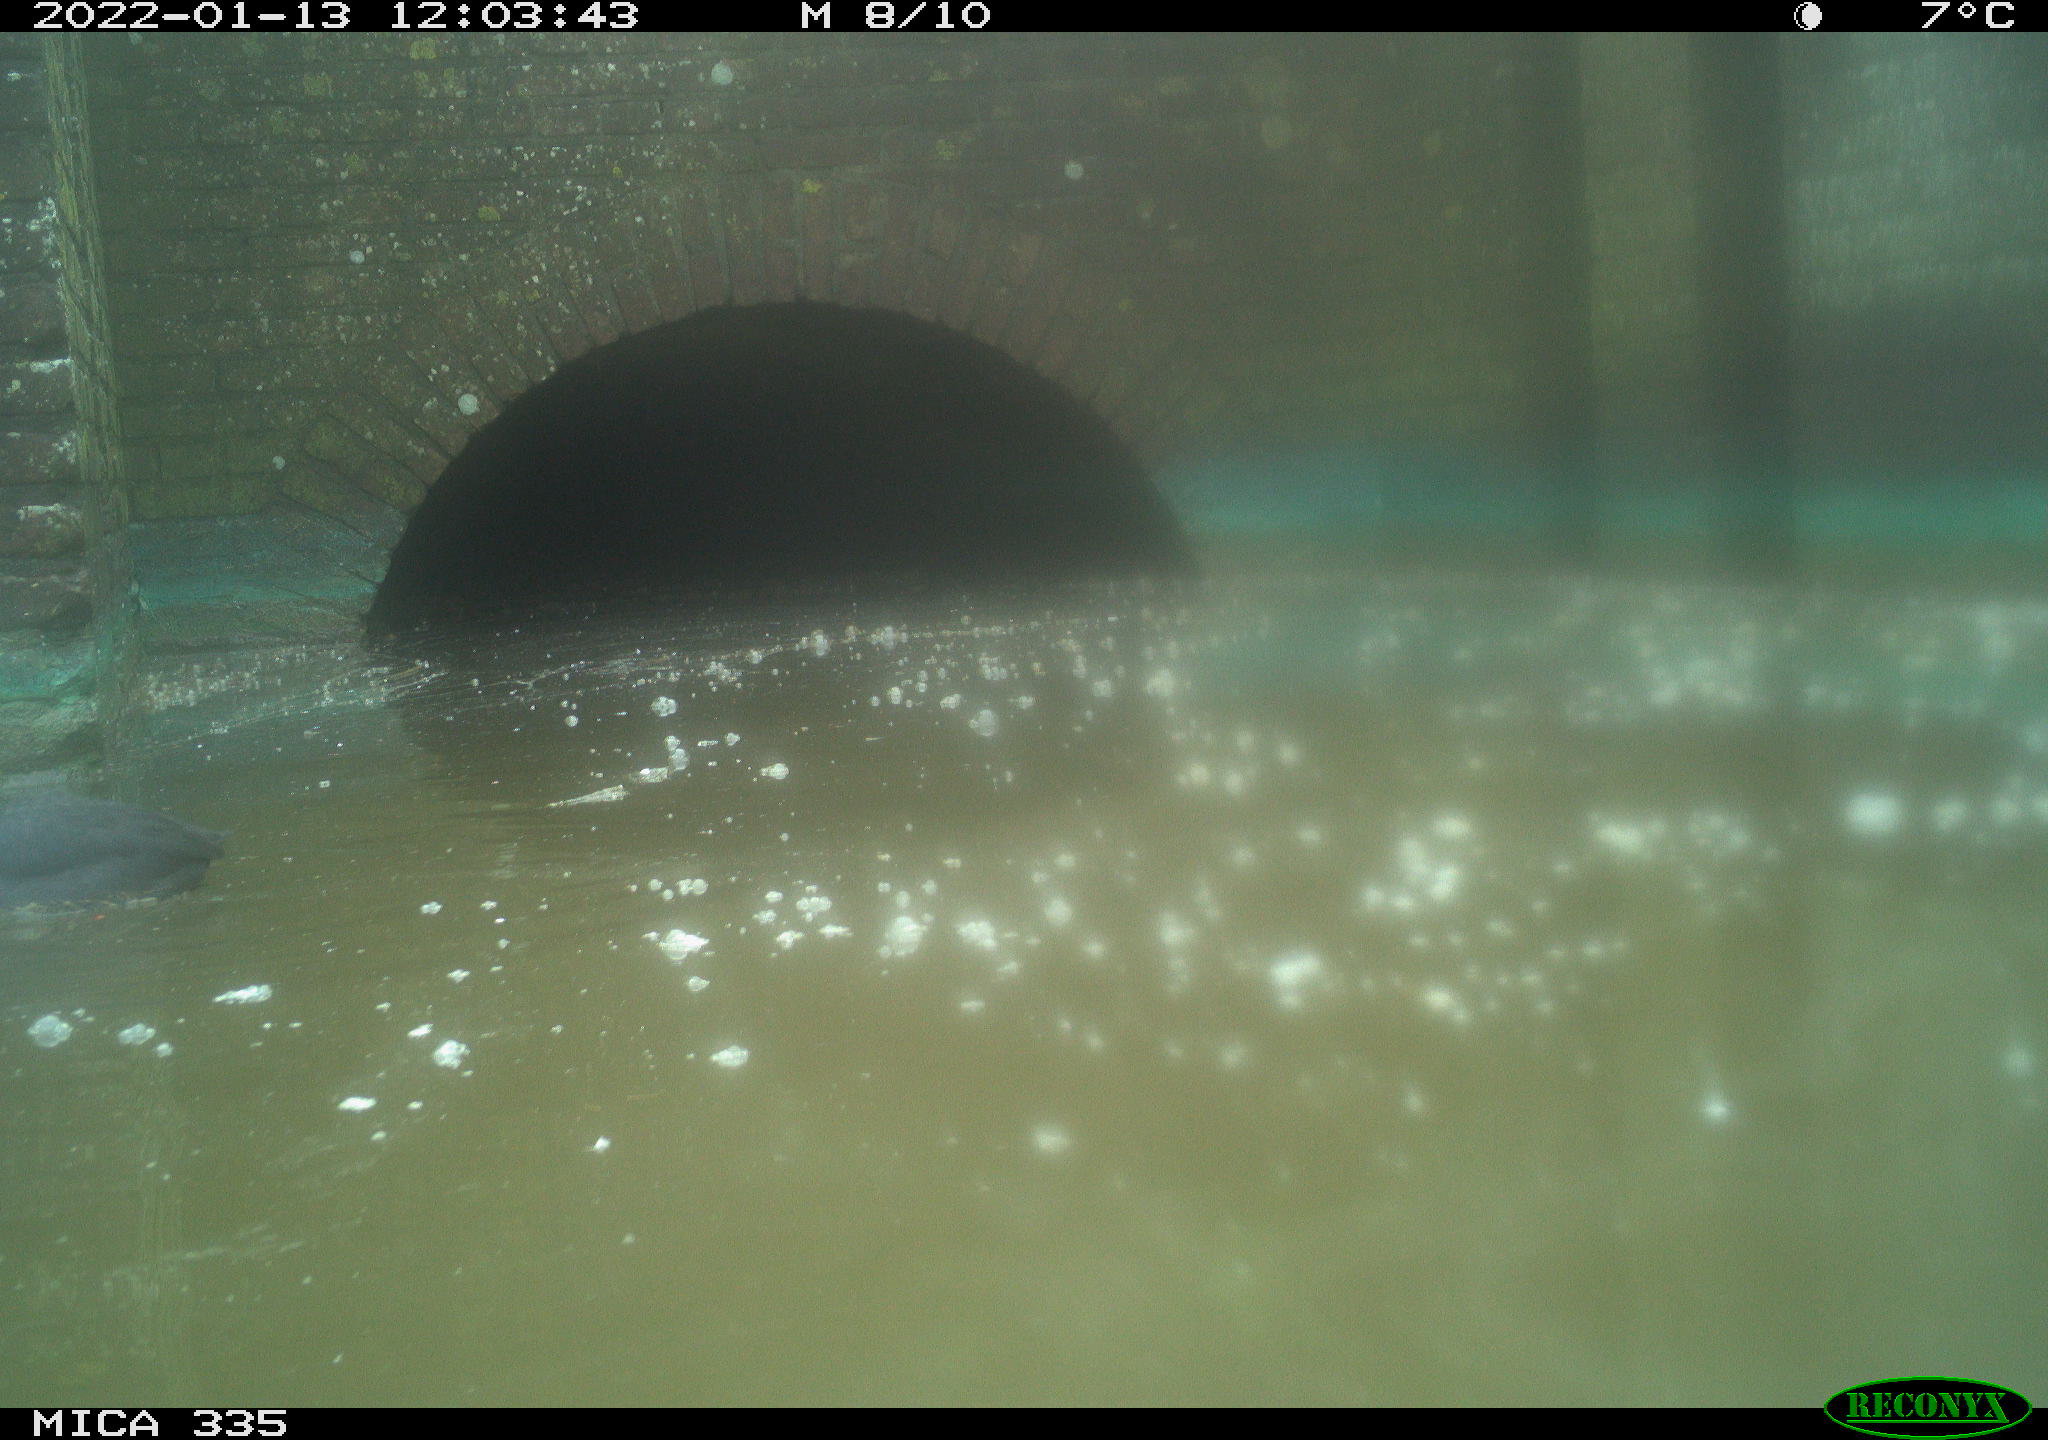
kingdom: Animalia
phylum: Chordata
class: Aves
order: Gruiformes
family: Rallidae
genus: Fulica
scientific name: Fulica atra
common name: Eurasian coot
